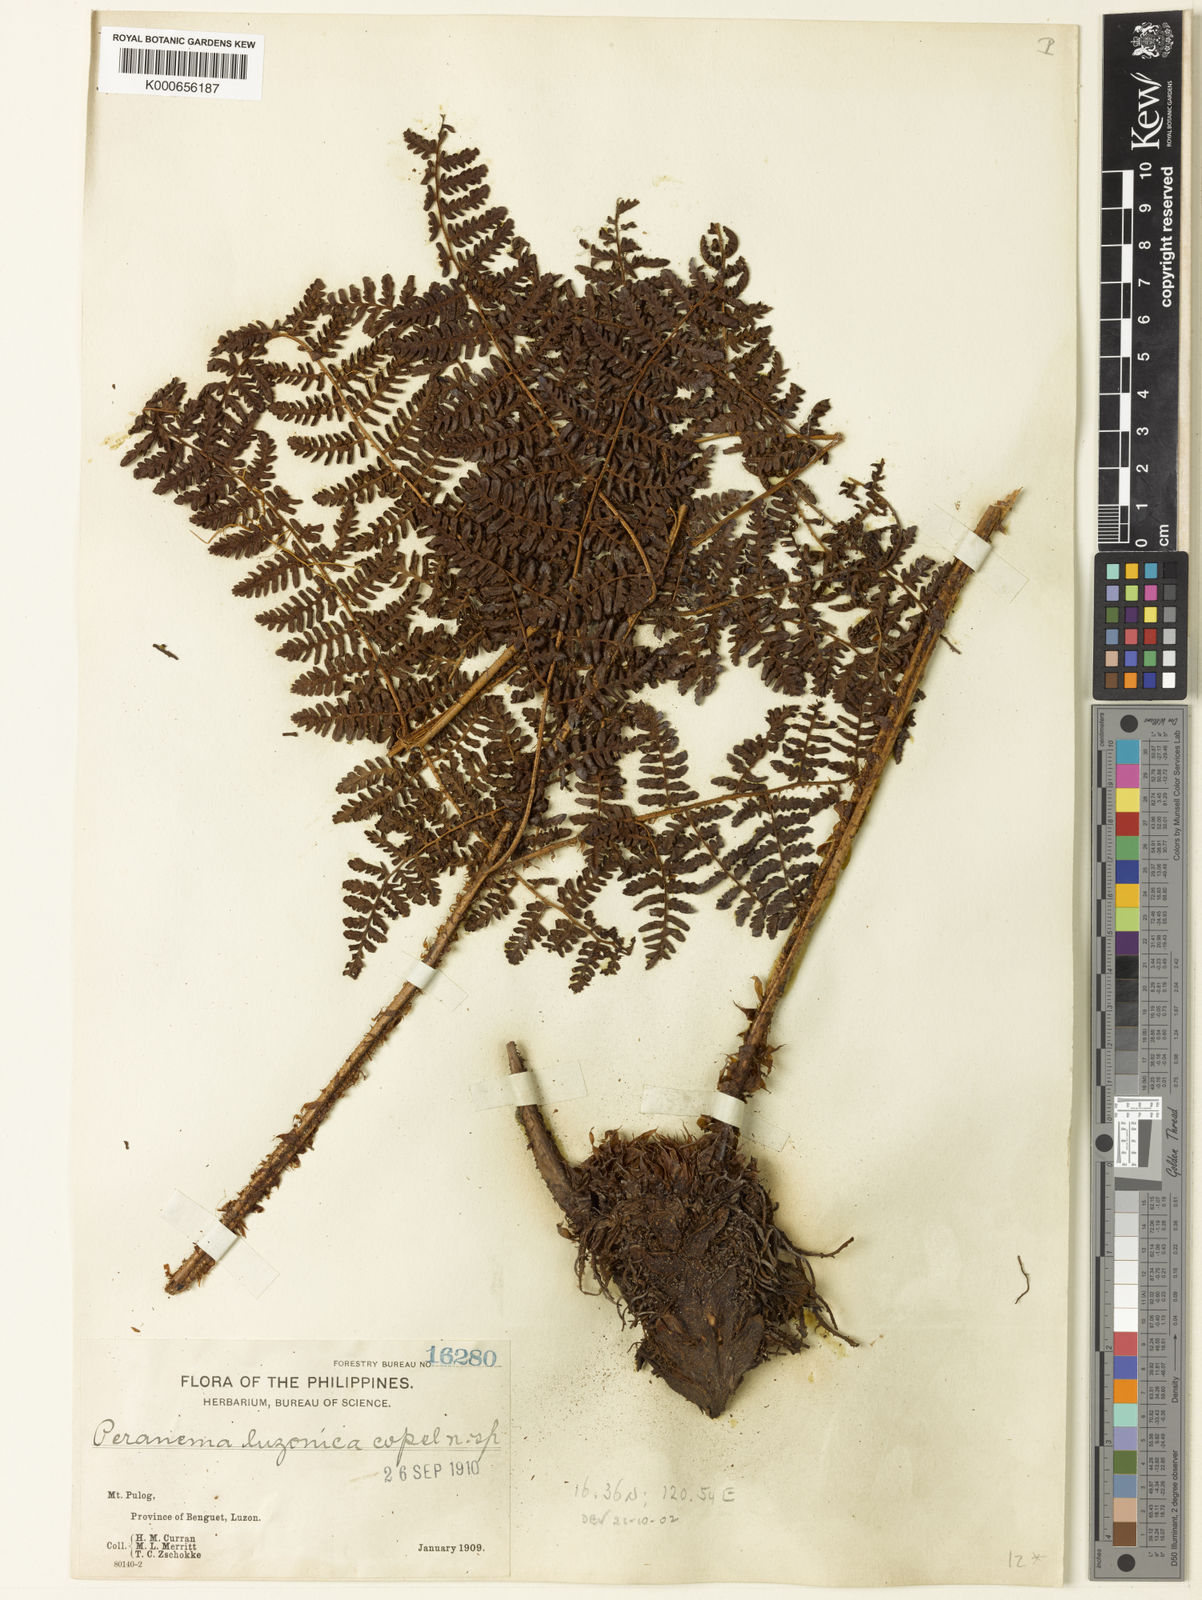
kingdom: Plantae
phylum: Tracheophyta
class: Polypodiopsida
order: Polypodiales
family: Dryopteridaceae
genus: Dryopteris
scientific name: Dryopteris peranema
